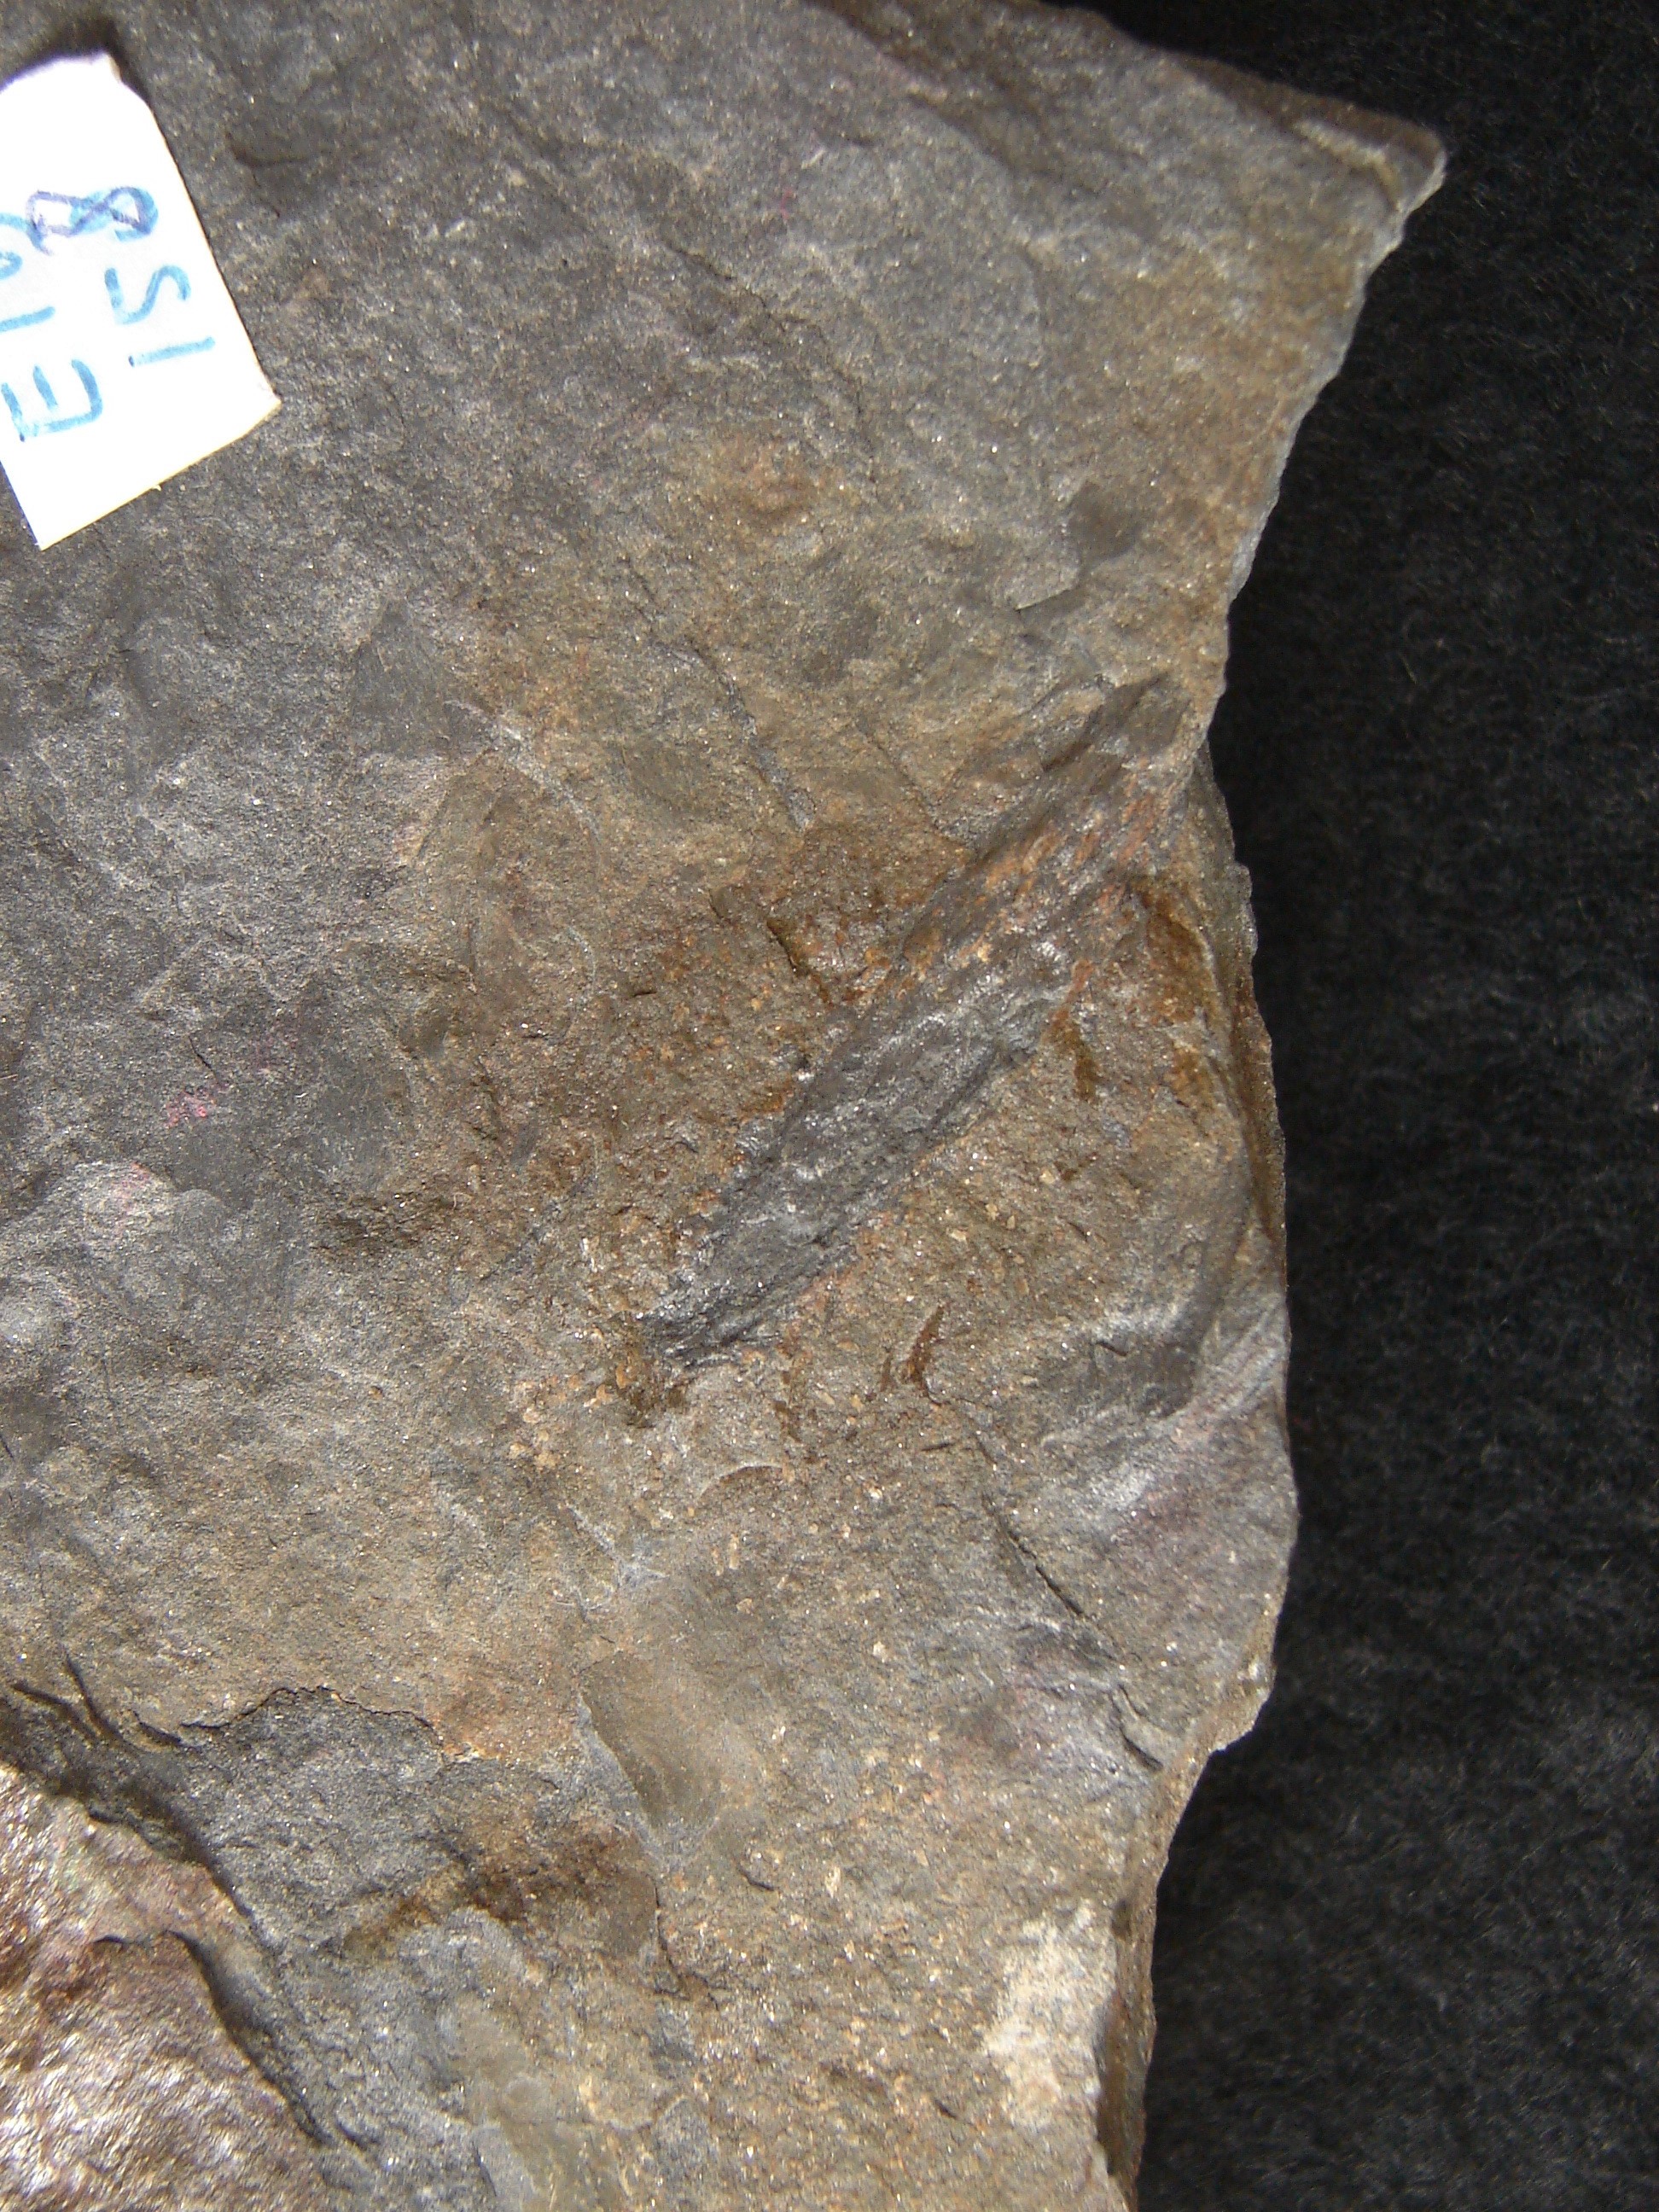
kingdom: Plantae
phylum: Tracheophyta
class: Lycopodiopsida
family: Drepanophycaceae
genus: Drepanophycus
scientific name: Drepanophycus spinaeformis
